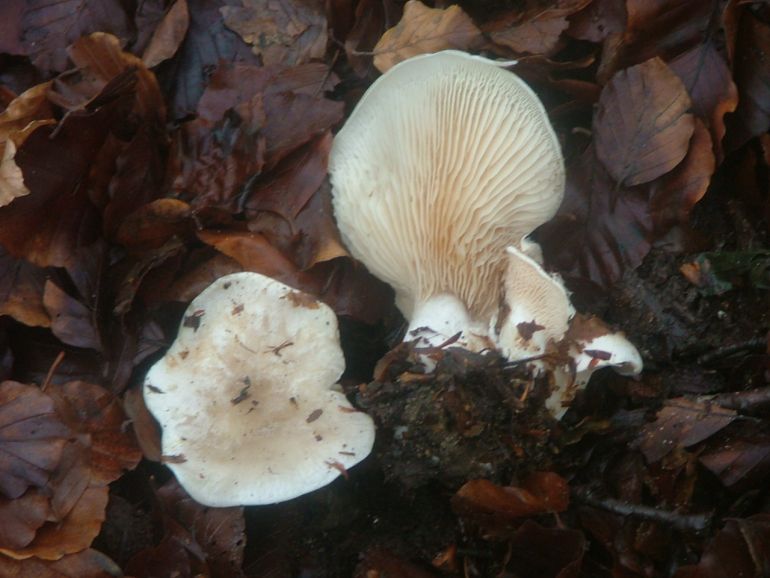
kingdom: Fungi
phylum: Basidiomycota
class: Agaricomycetes
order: Agaricales
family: Entolomataceae
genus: Clitopilus
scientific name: Clitopilus prunulus
